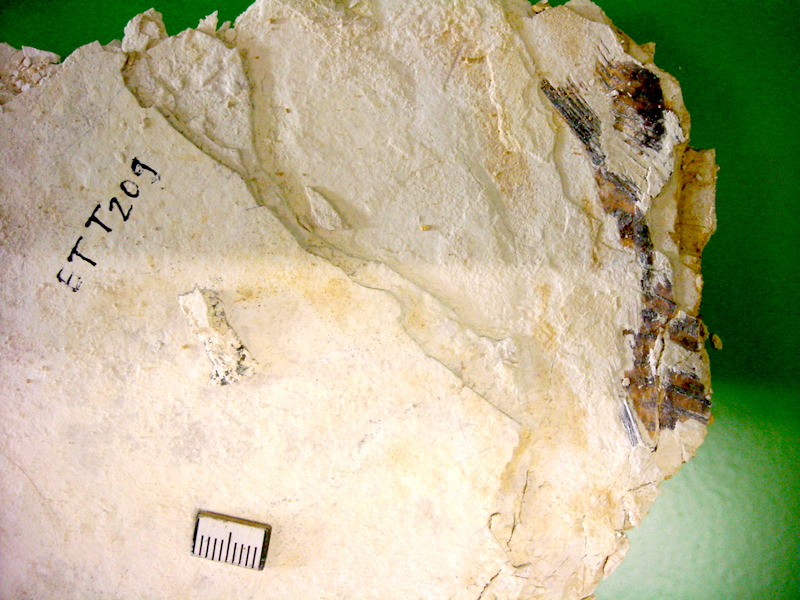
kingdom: Animalia
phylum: Chordata
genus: Thrissops
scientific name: Thrissops formosus
